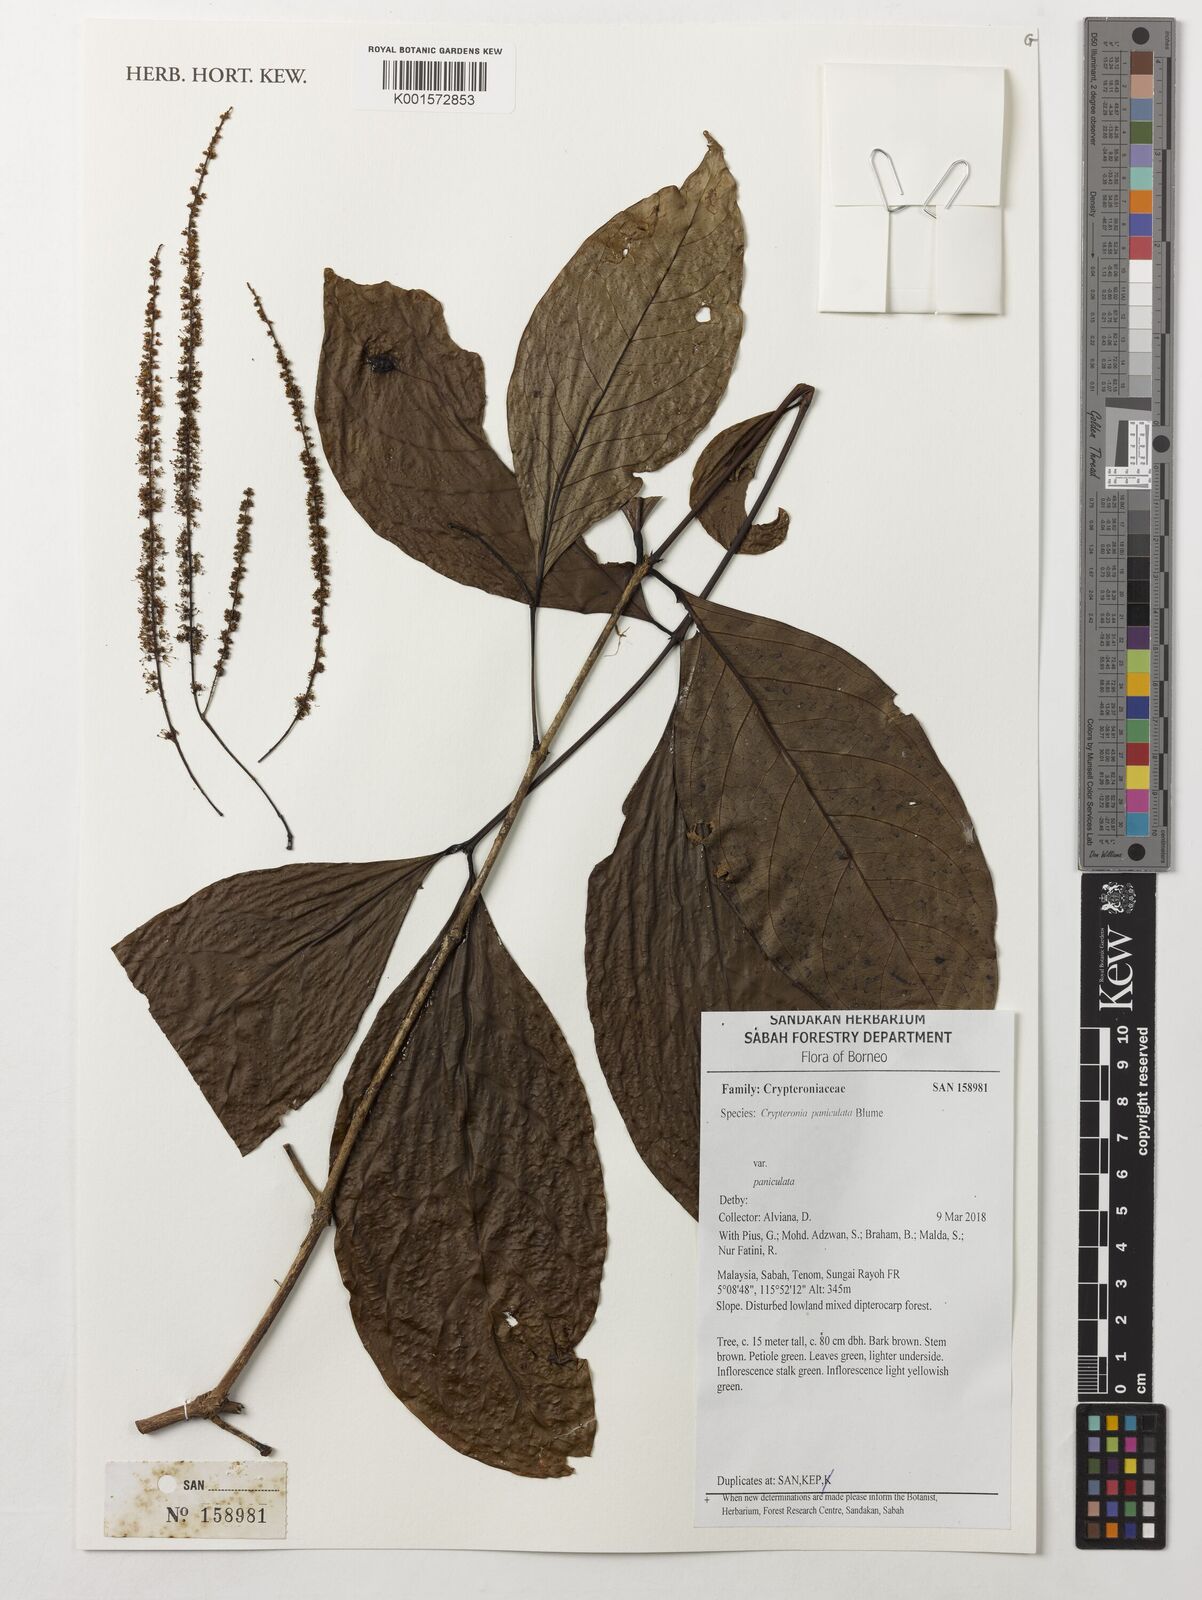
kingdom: Plantae
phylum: Tracheophyta
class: Magnoliopsida
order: Myrtales
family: Crypteroniaceae
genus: Crypteronia
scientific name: Crypteronia paniculata
